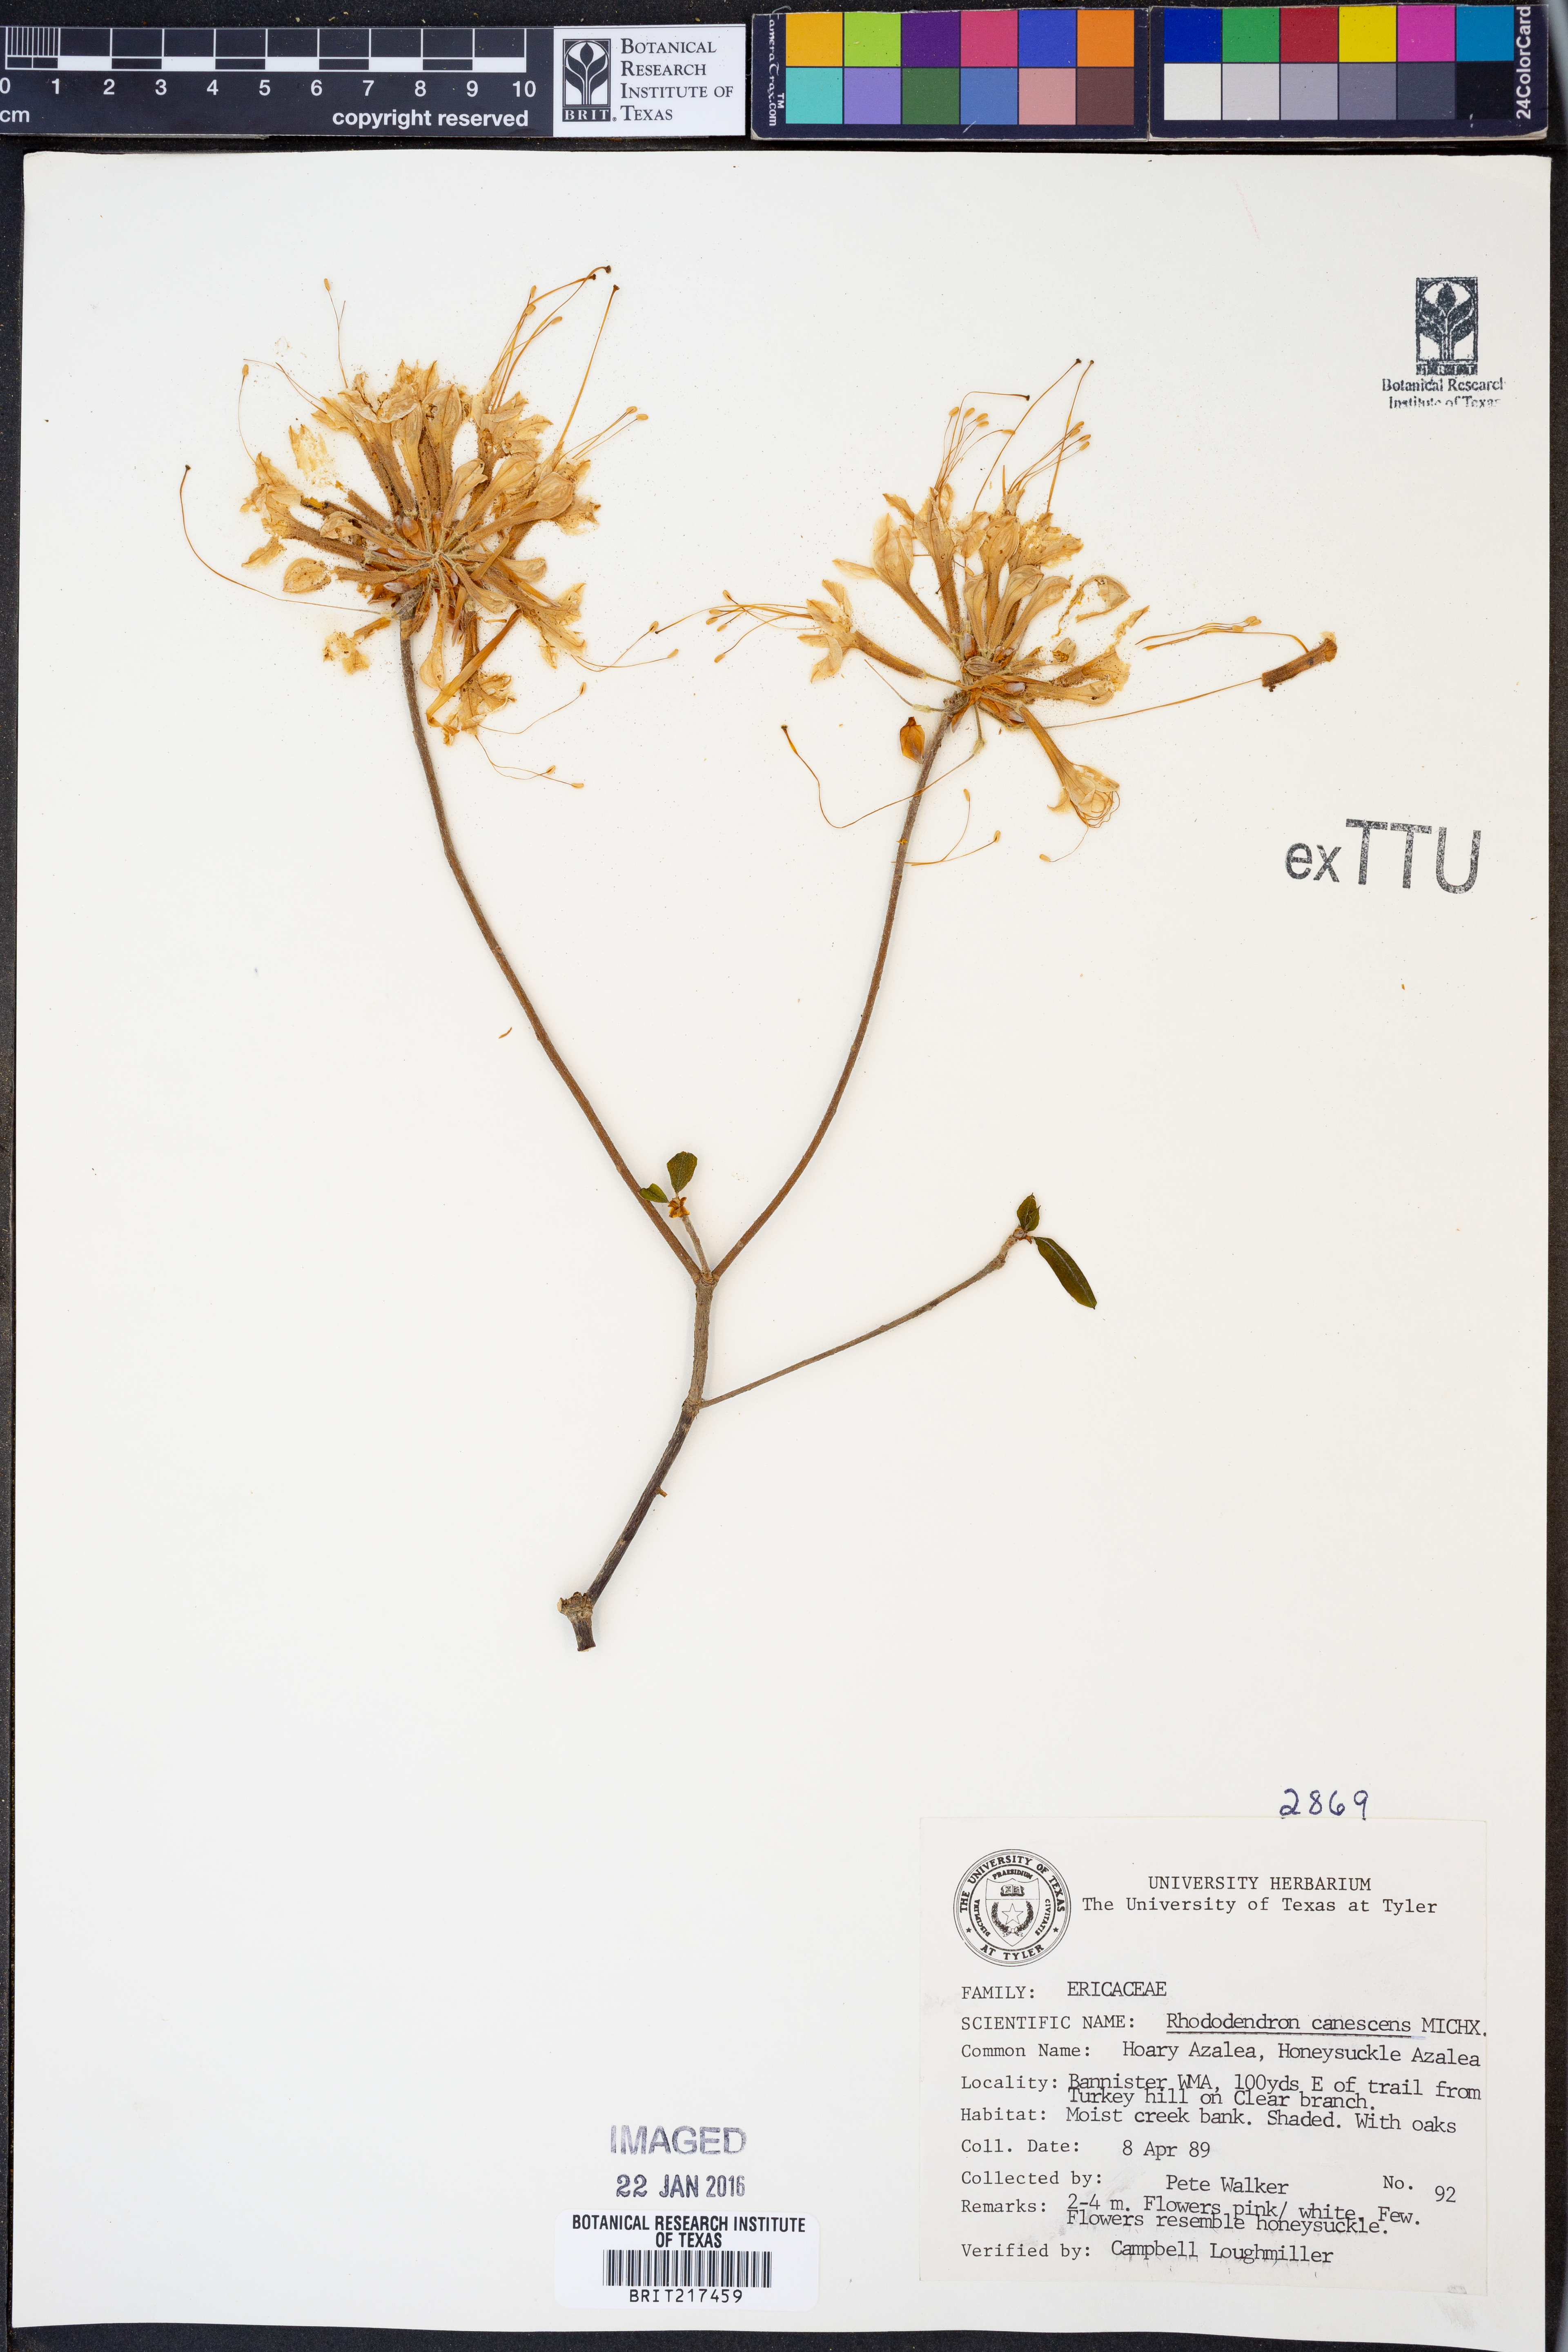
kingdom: Plantae
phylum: Tracheophyta
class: Magnoliopsida
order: Ericales
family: Ericaceae
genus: Rhododendron
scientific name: Rhododendron canescens
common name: Mountain azalea
